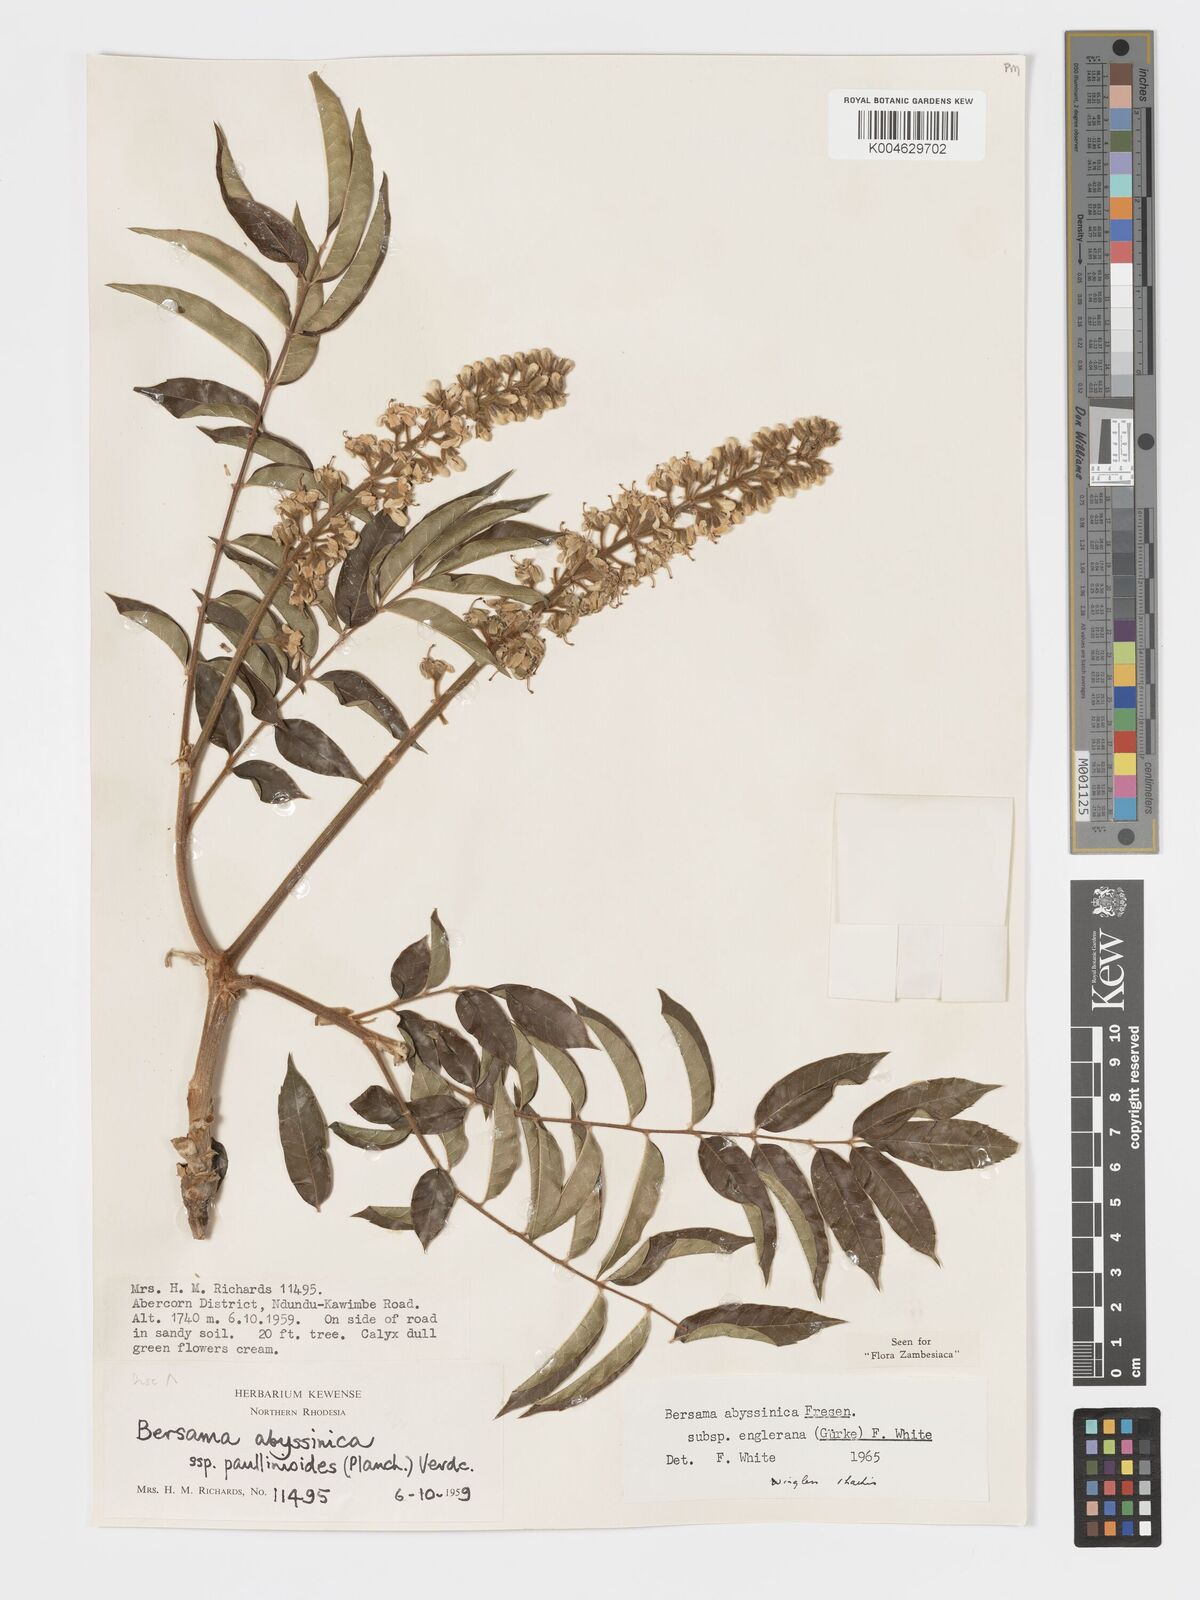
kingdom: Plantae
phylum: Tracheophyta
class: Magnoliopsida
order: Geraniales
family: Melianthaceae
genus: Bersama
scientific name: Bersama abyssinica
